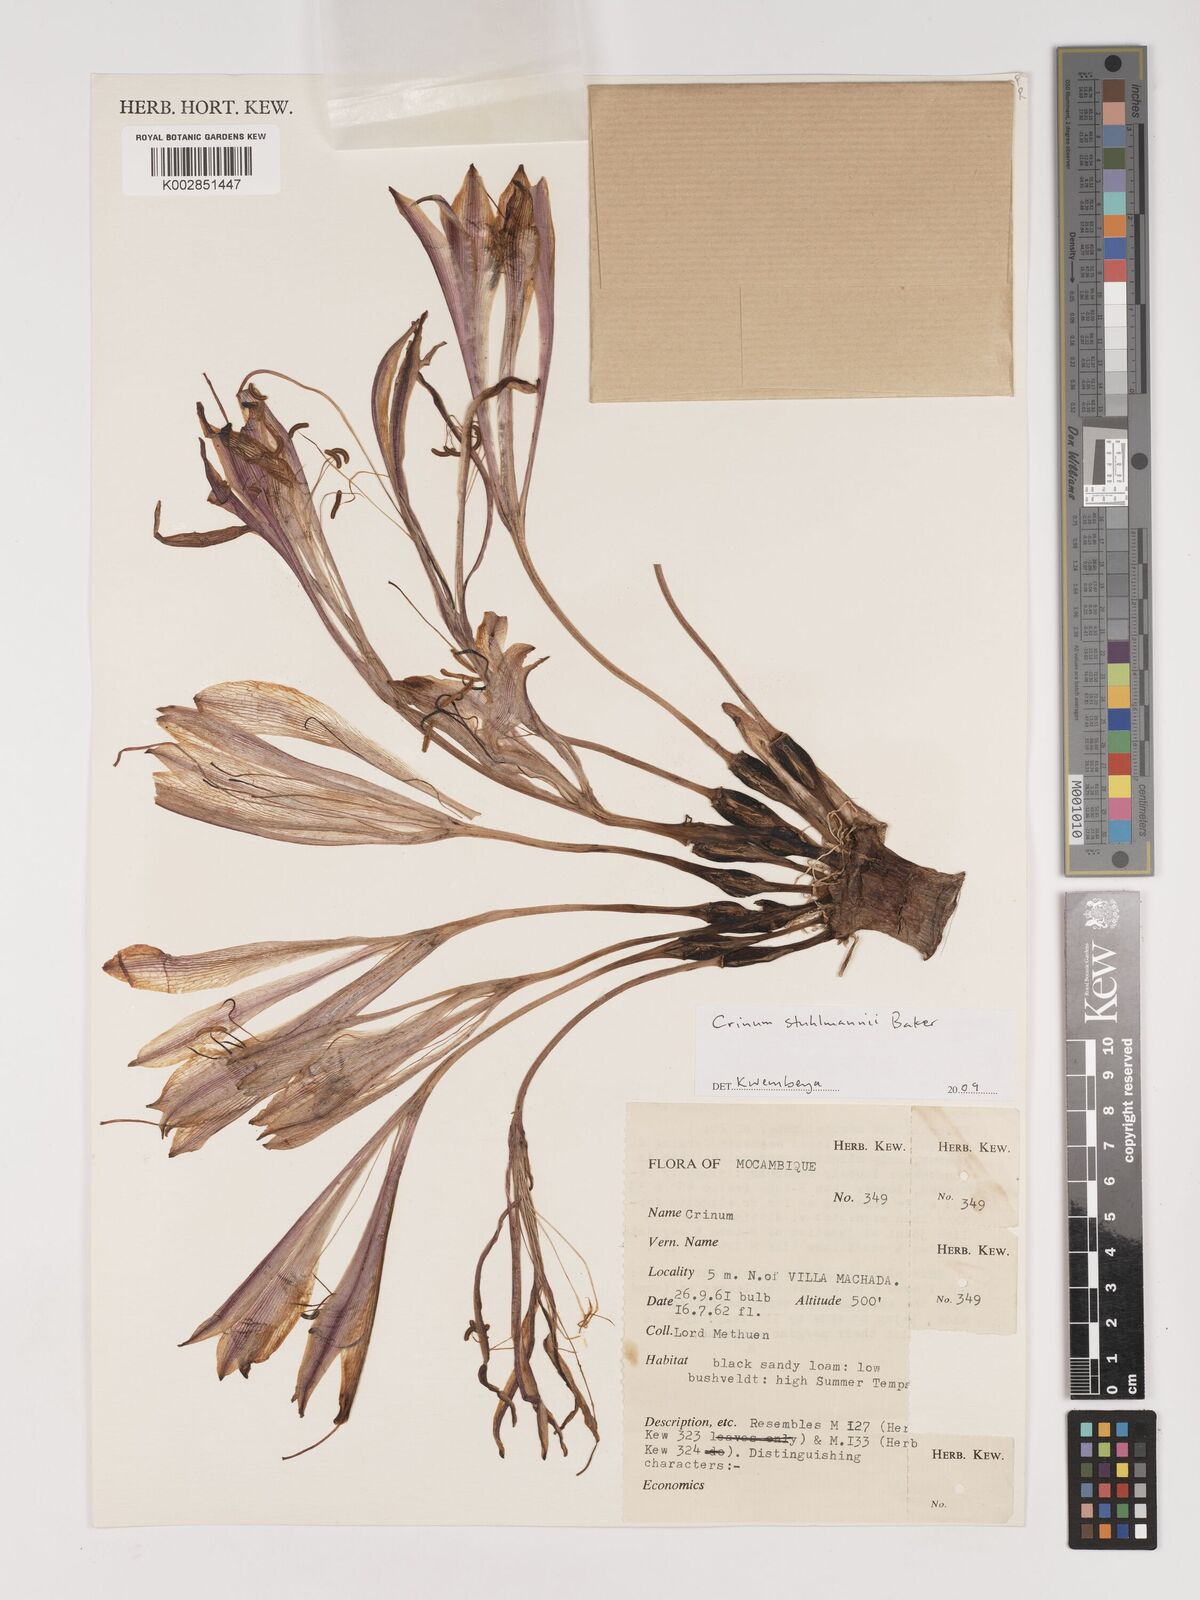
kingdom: Plantae
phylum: Tracheophyta
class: Liliopsida
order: Asparagales
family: Amaryllidaceae
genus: Crinum
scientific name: Crinum stuhlmannii
